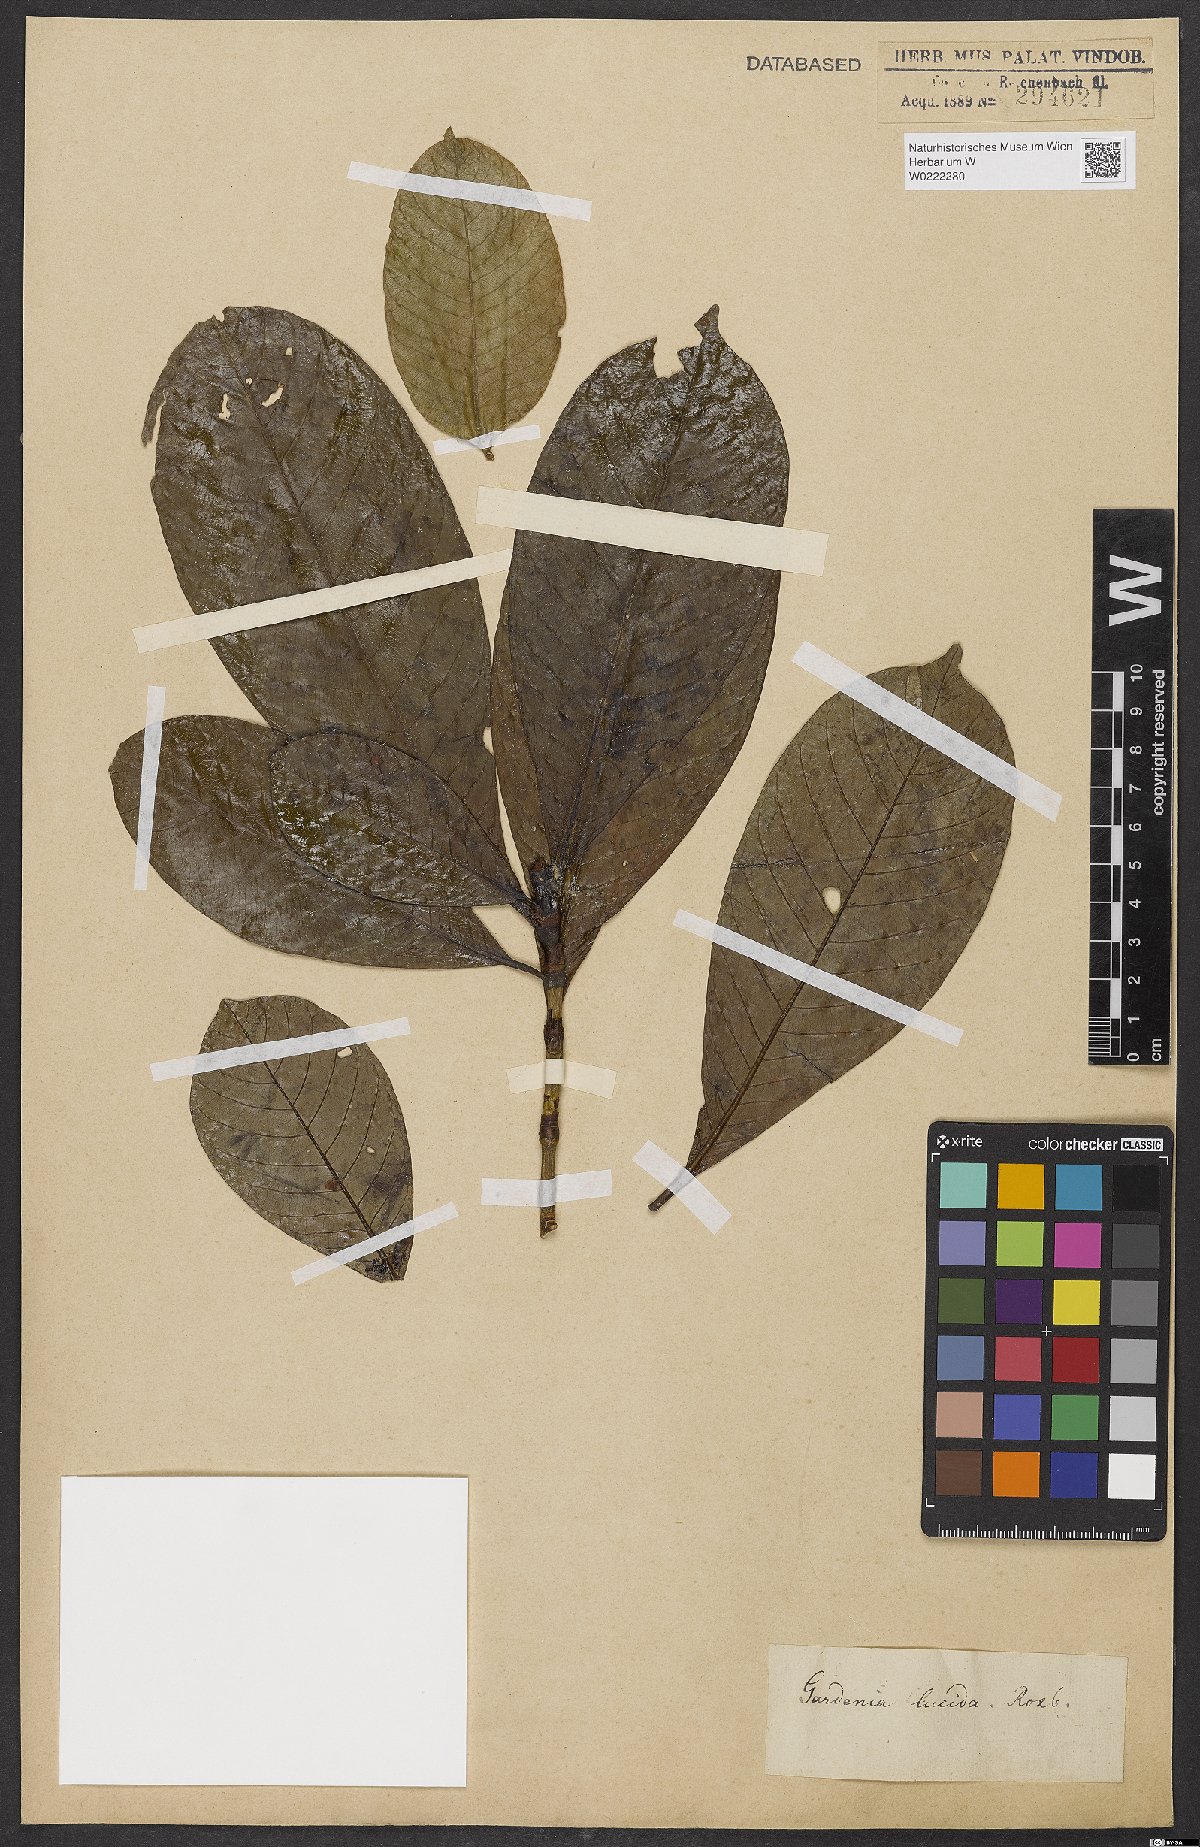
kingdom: Plantae
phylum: Tracheophyta
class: Magnoliopsida
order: Gentianales
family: Rubiaceae
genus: Gardenia
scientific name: Gardenia resinifera
